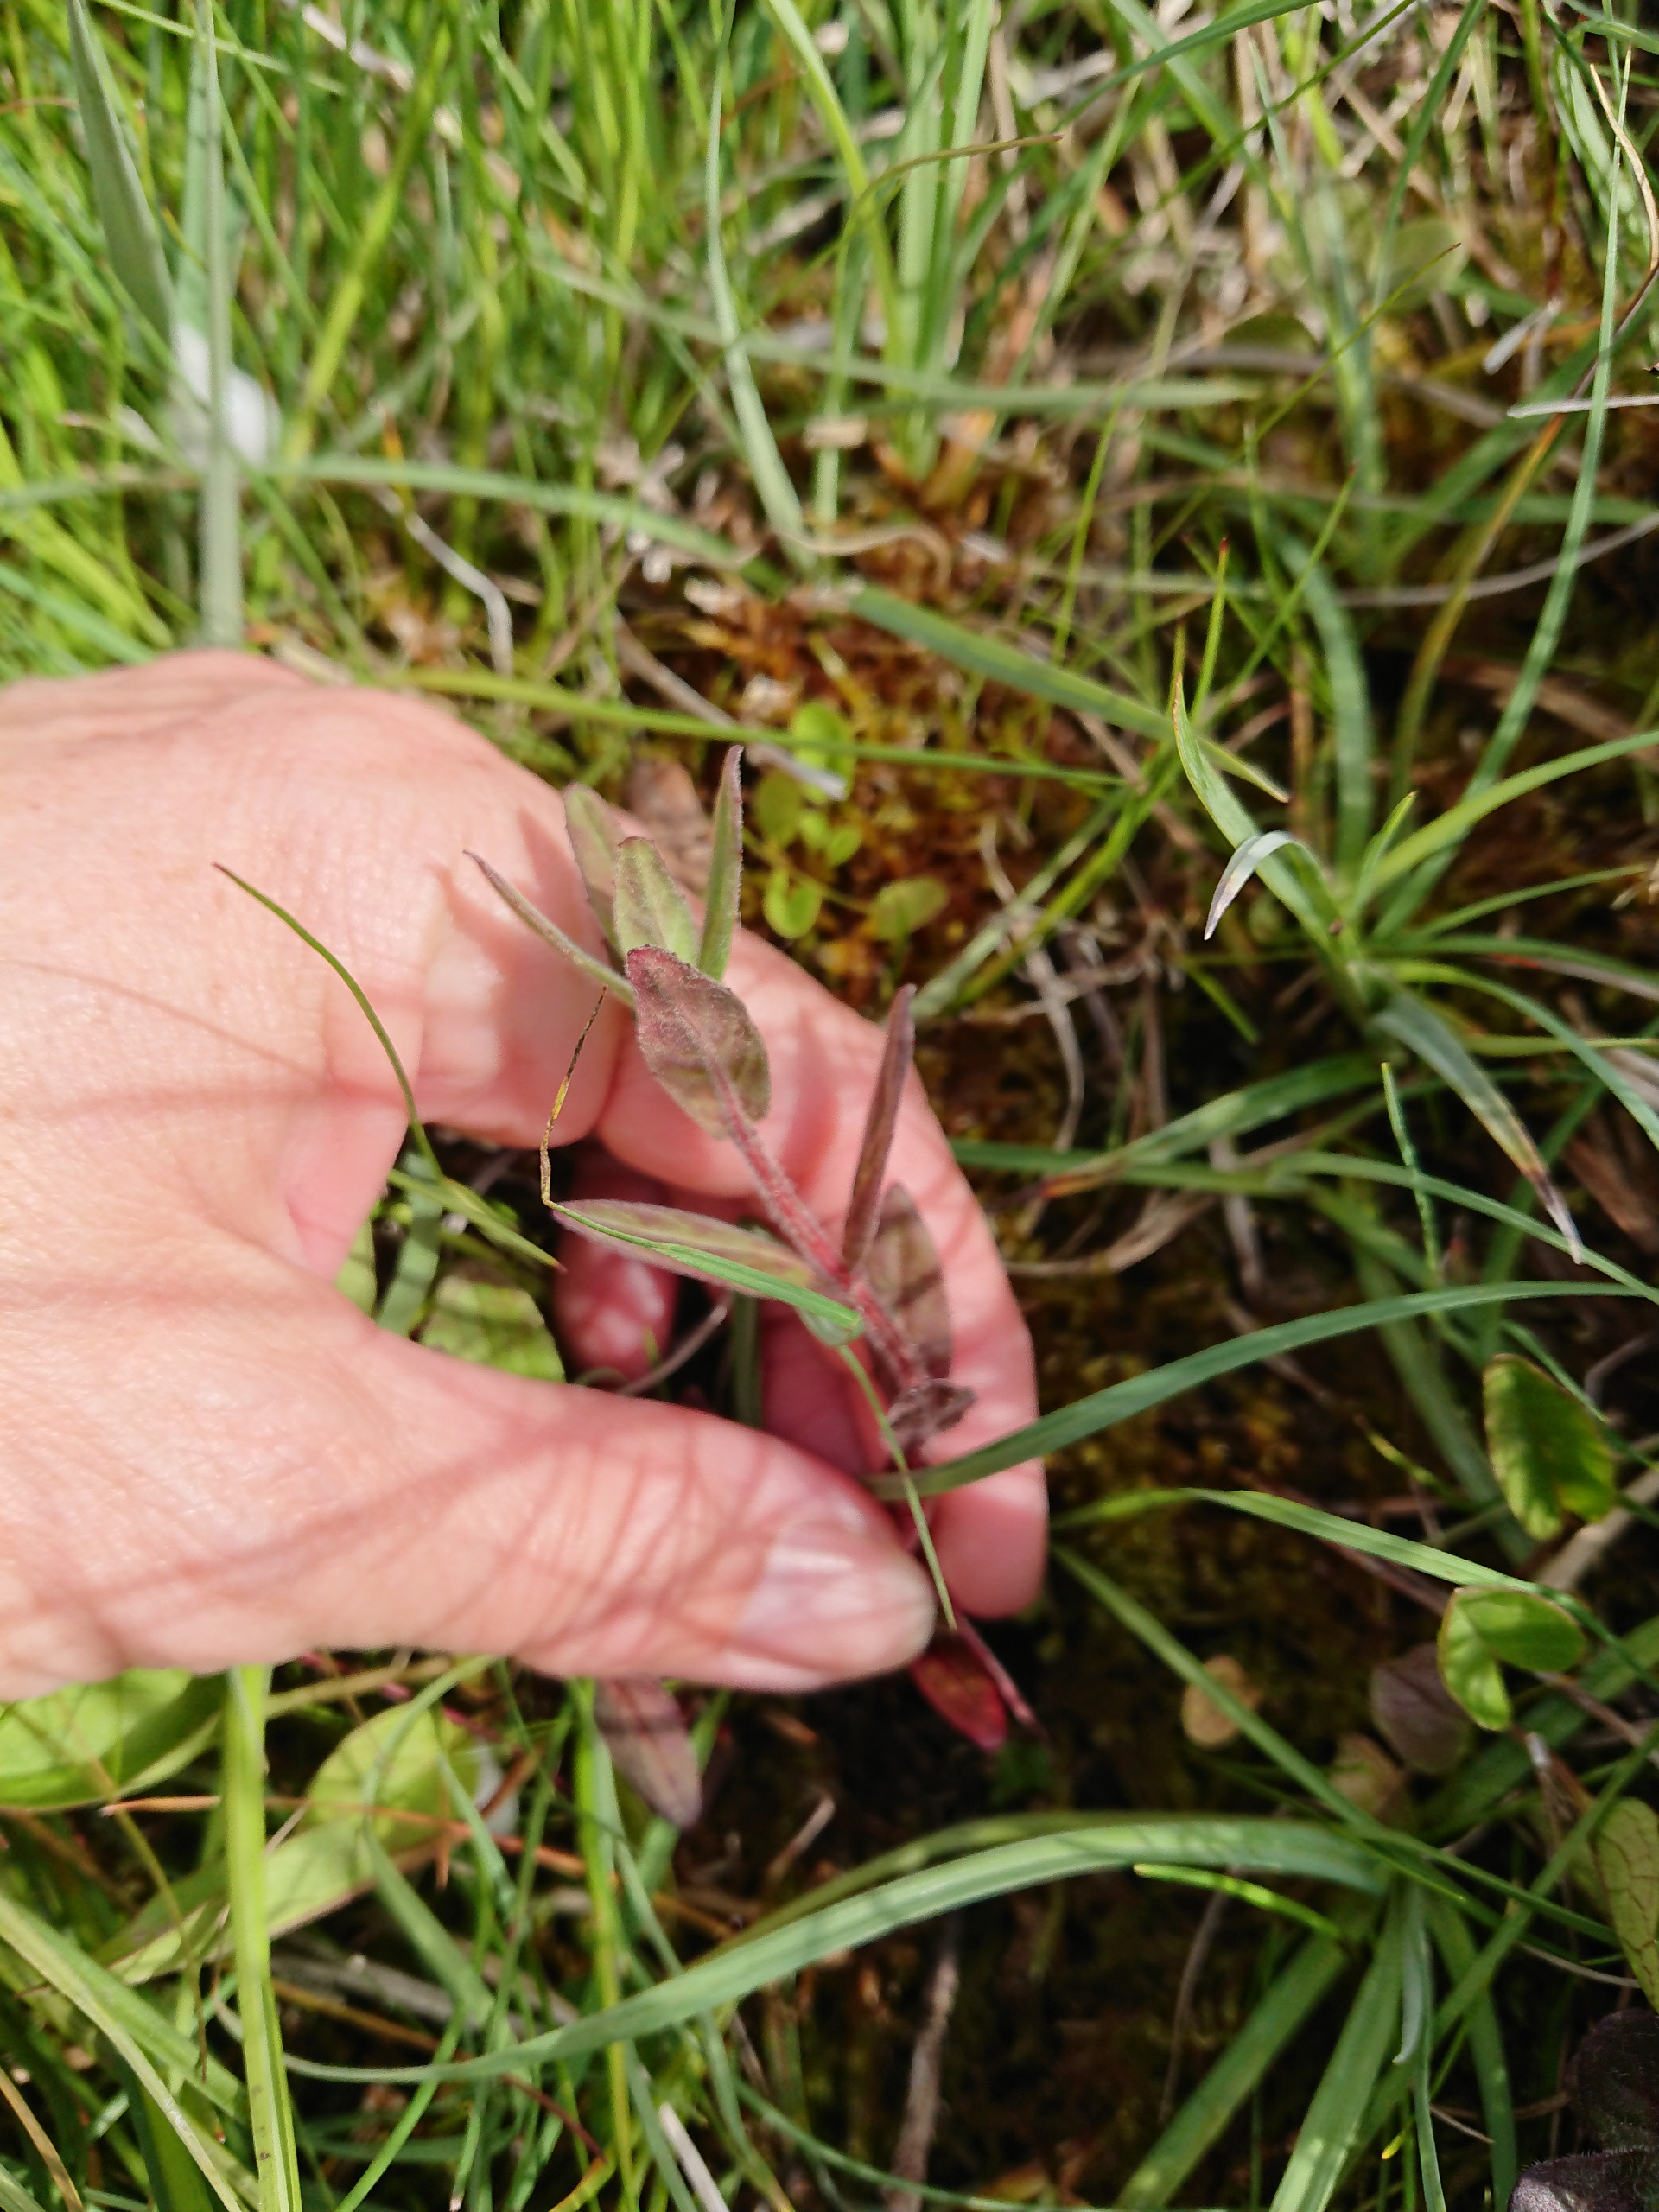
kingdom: Plantae
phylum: Tracheophyta
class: Magnoliopsida
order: Myrtales
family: Onagraceae
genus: Epilobium
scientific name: Epilobium parviflorum
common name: Dunet dueurt
